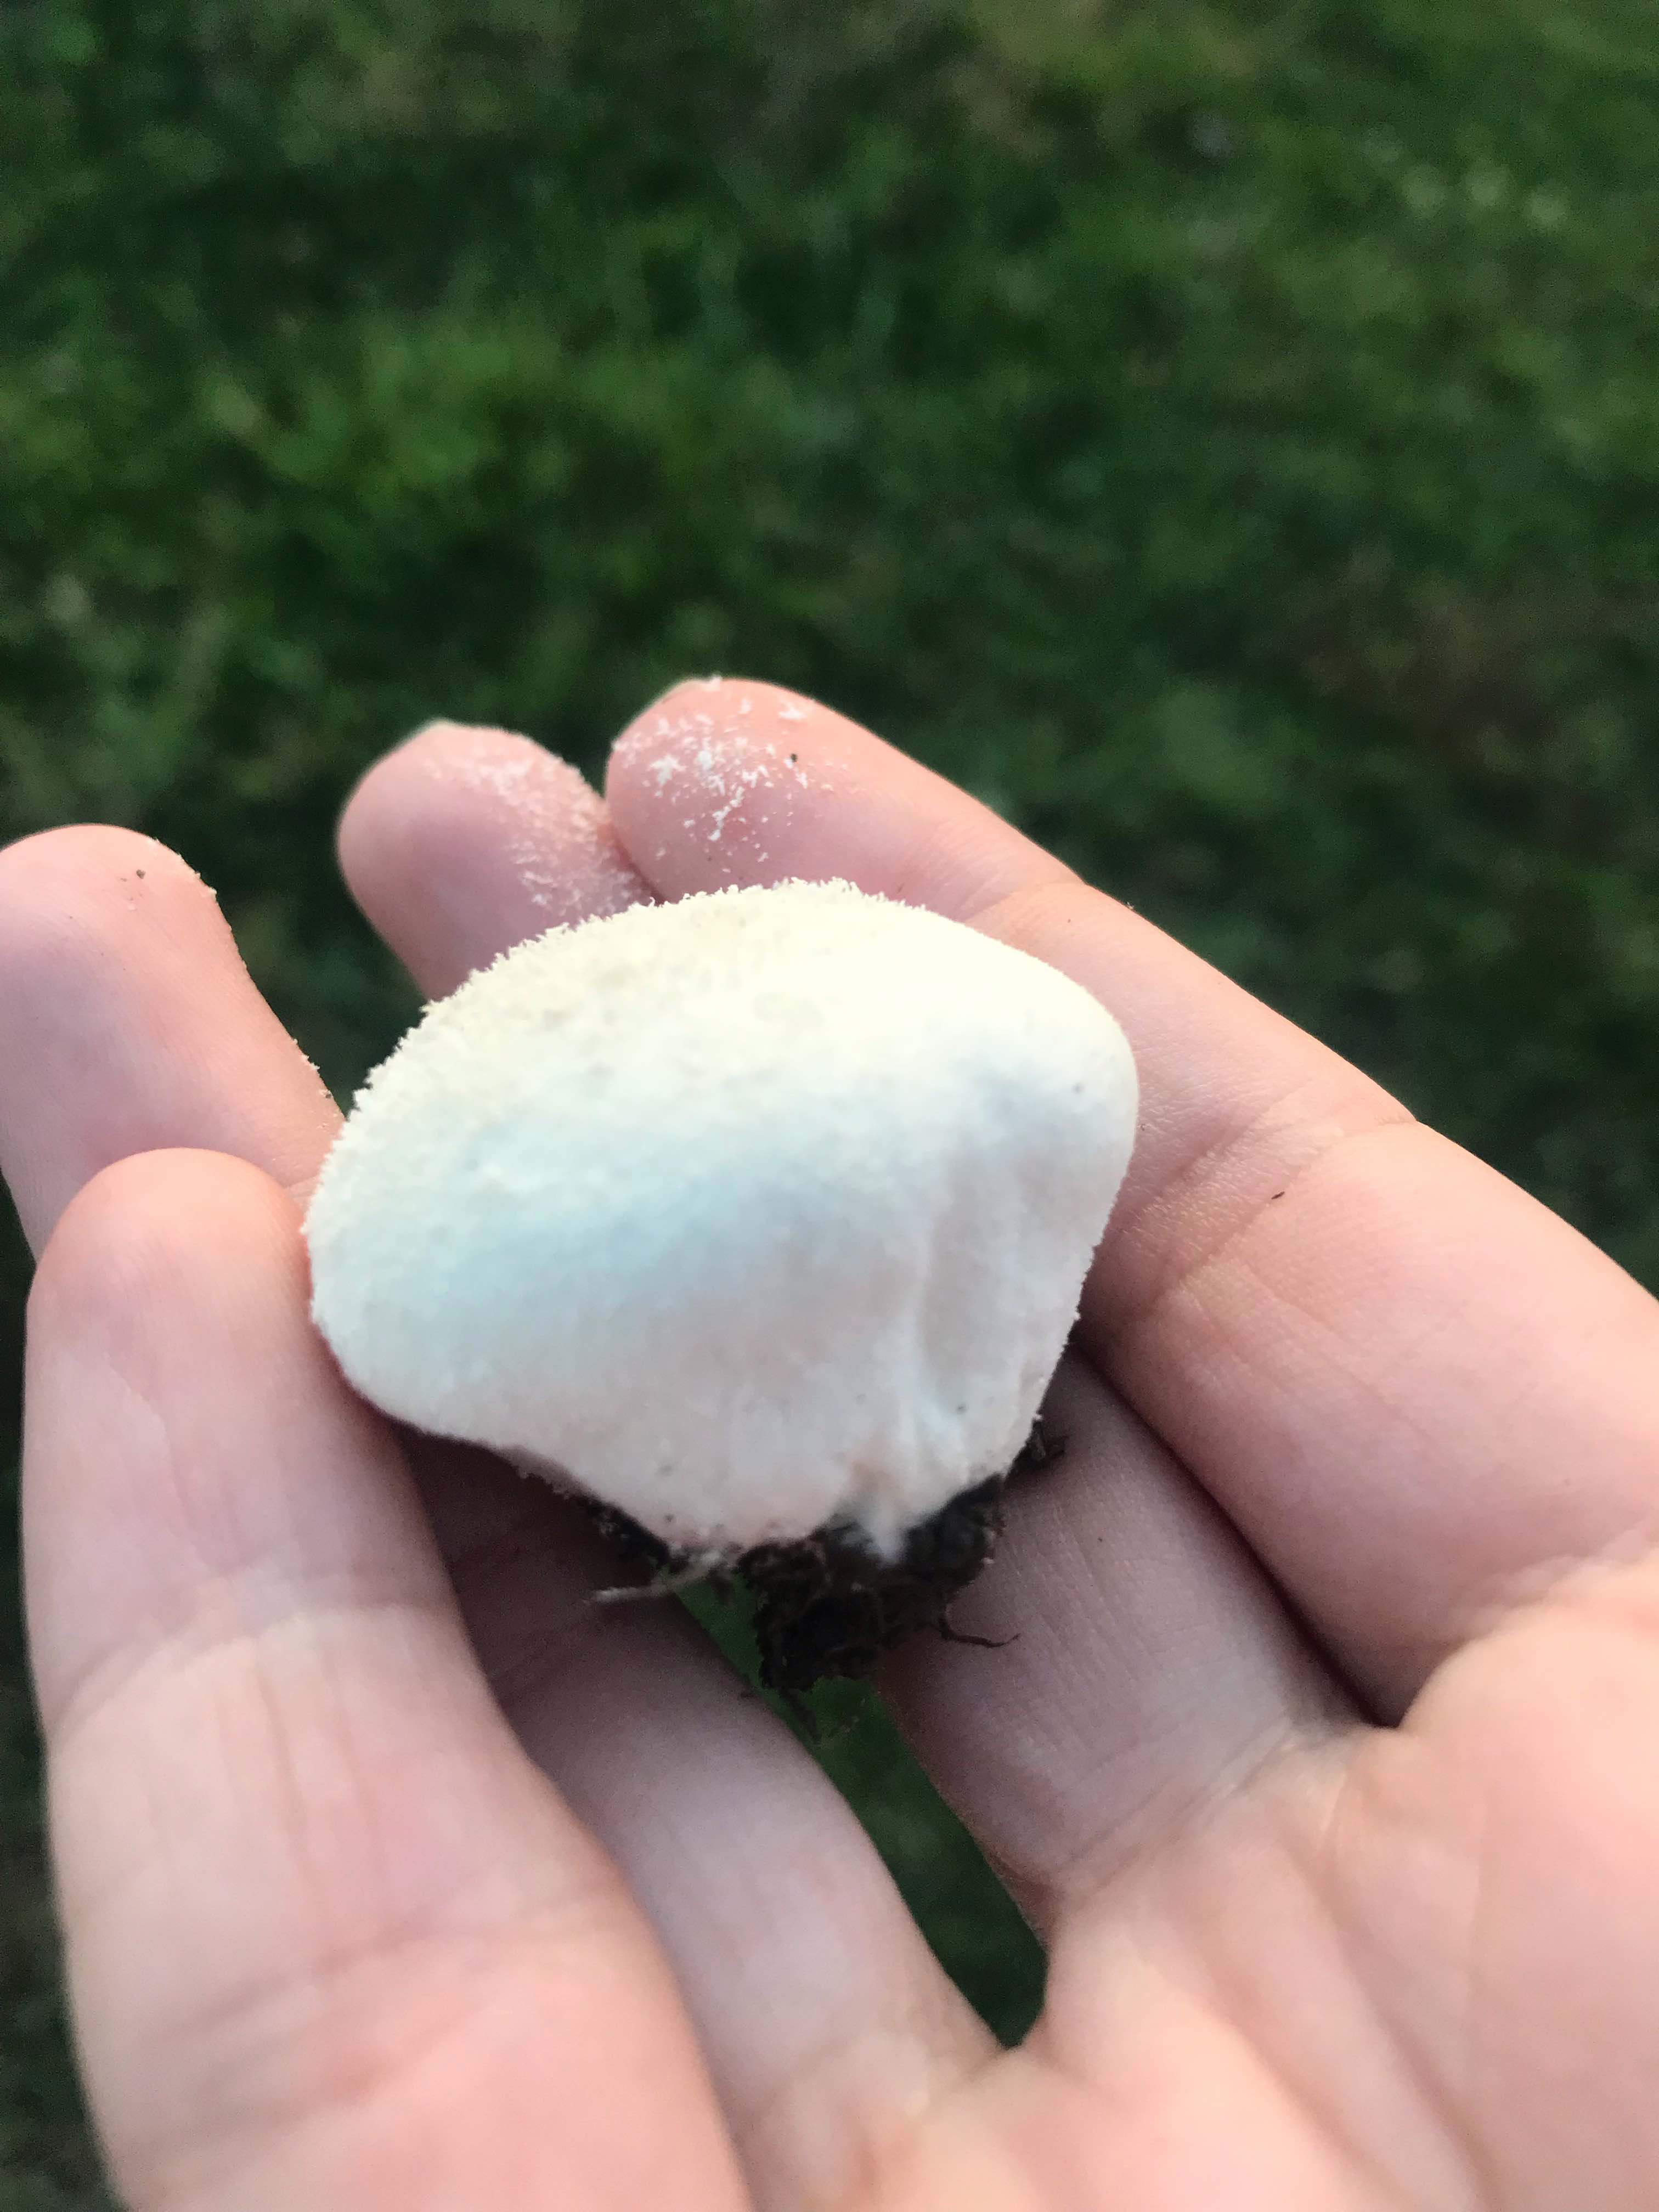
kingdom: Fungi
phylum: Basidiomycota
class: Agaricomycetes
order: Agaricales
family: Lycoperdaceae
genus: Lycoperdon
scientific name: Lycoperdon pratense
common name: flad støvbold
